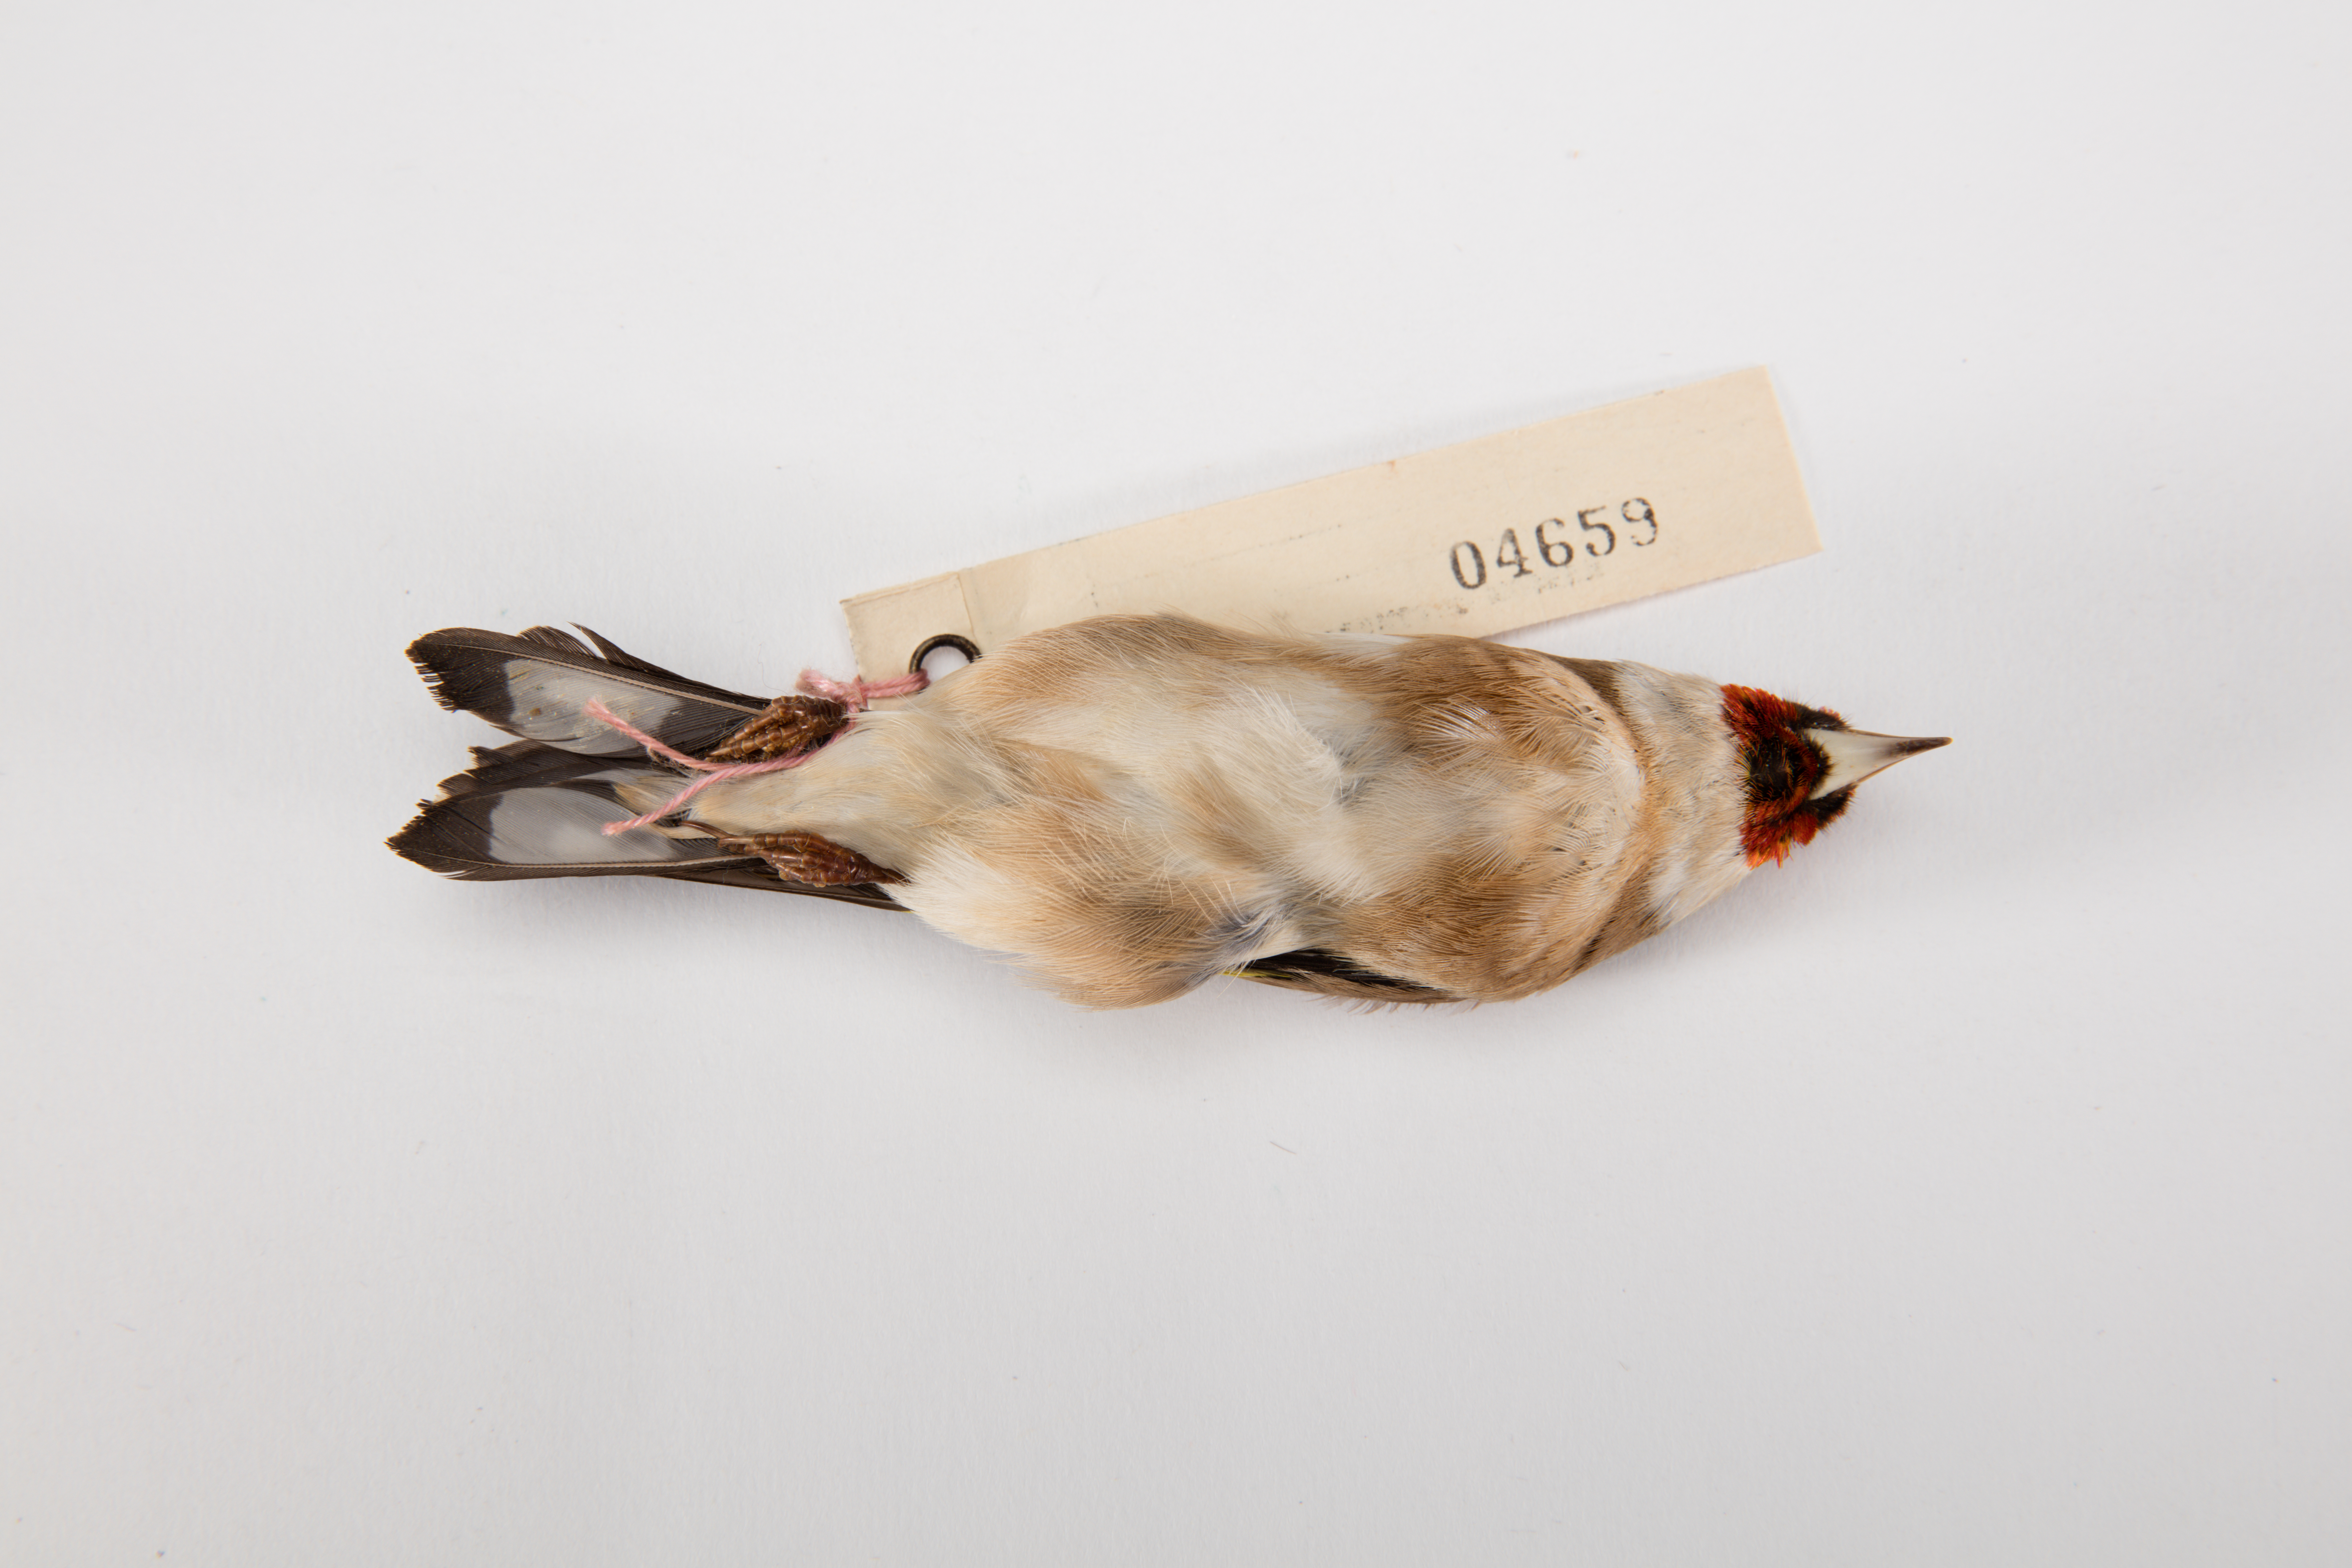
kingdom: Animalia
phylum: Chordata
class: Aves
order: Passeriformes
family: Fringillidae
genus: Carduelis
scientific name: Carduelis carduelis
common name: European goldfinch
